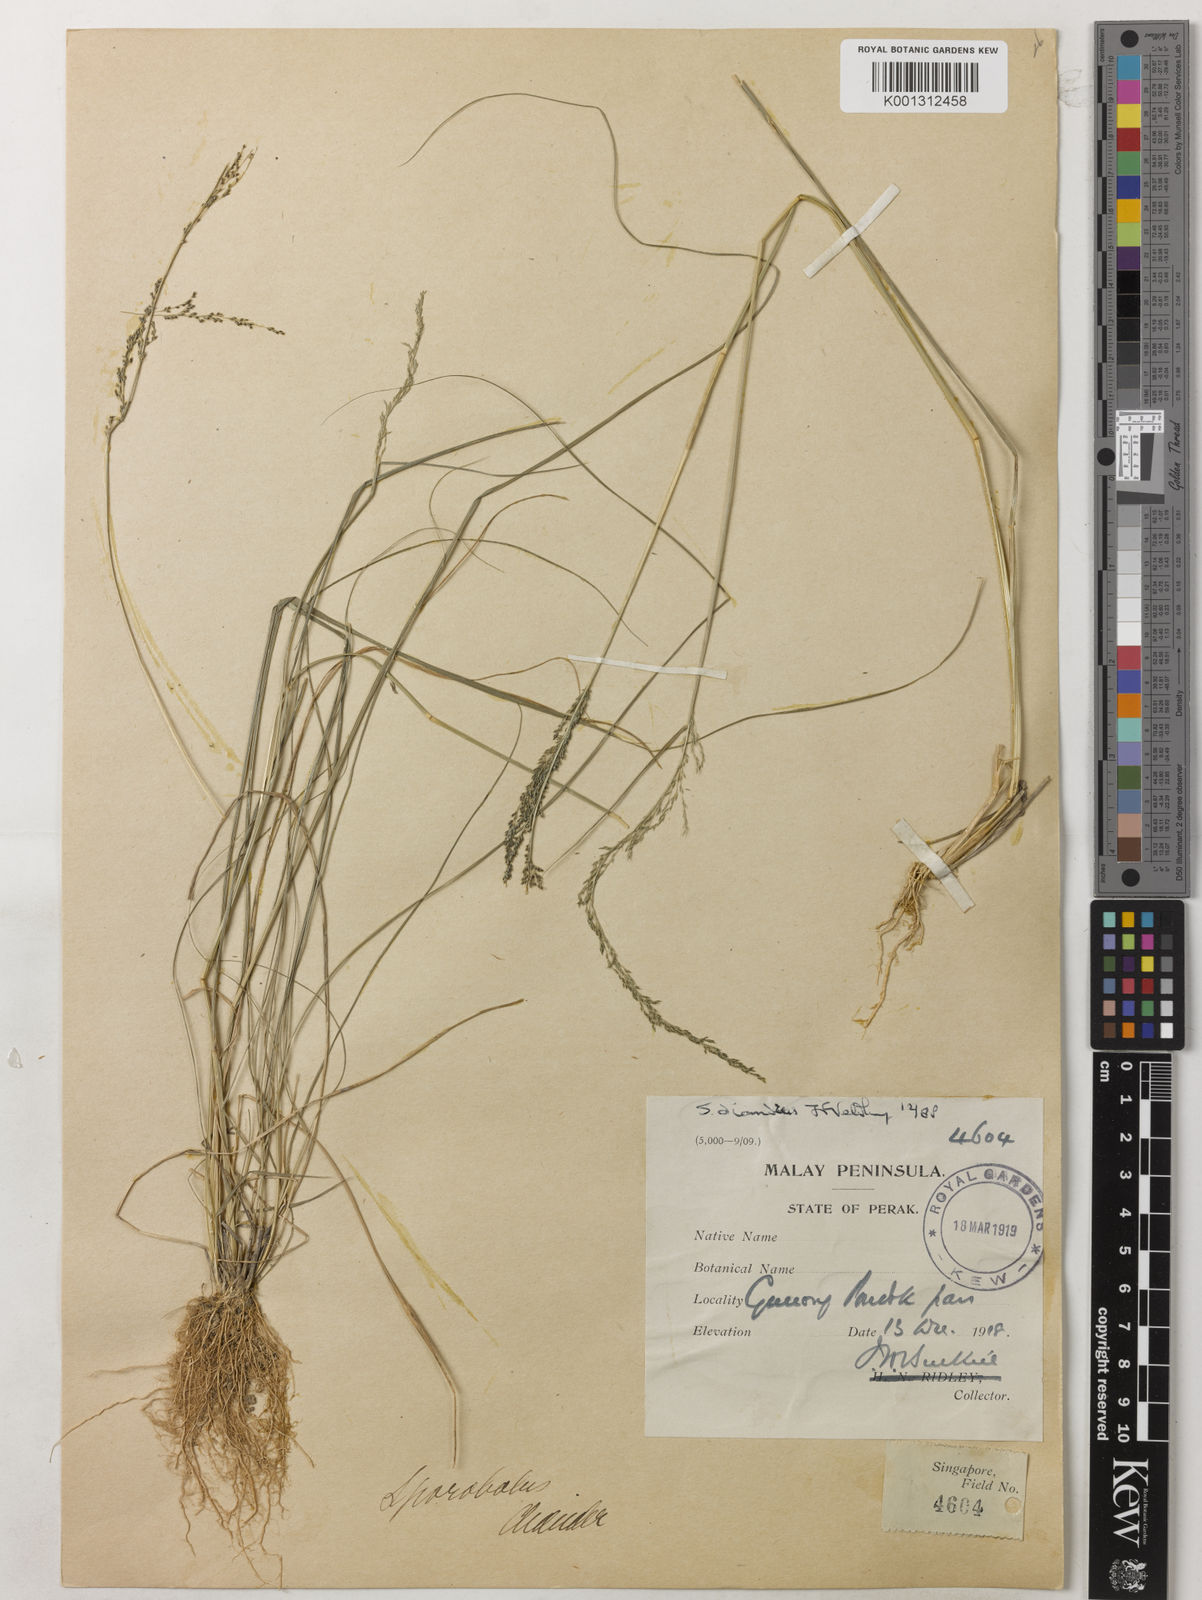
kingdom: Plantae
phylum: Tracheophyta
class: Liliopsida
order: Poales
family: Poaceae
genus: Sporobolus
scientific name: Sporobolus diandrus
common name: Tussock dropseed
